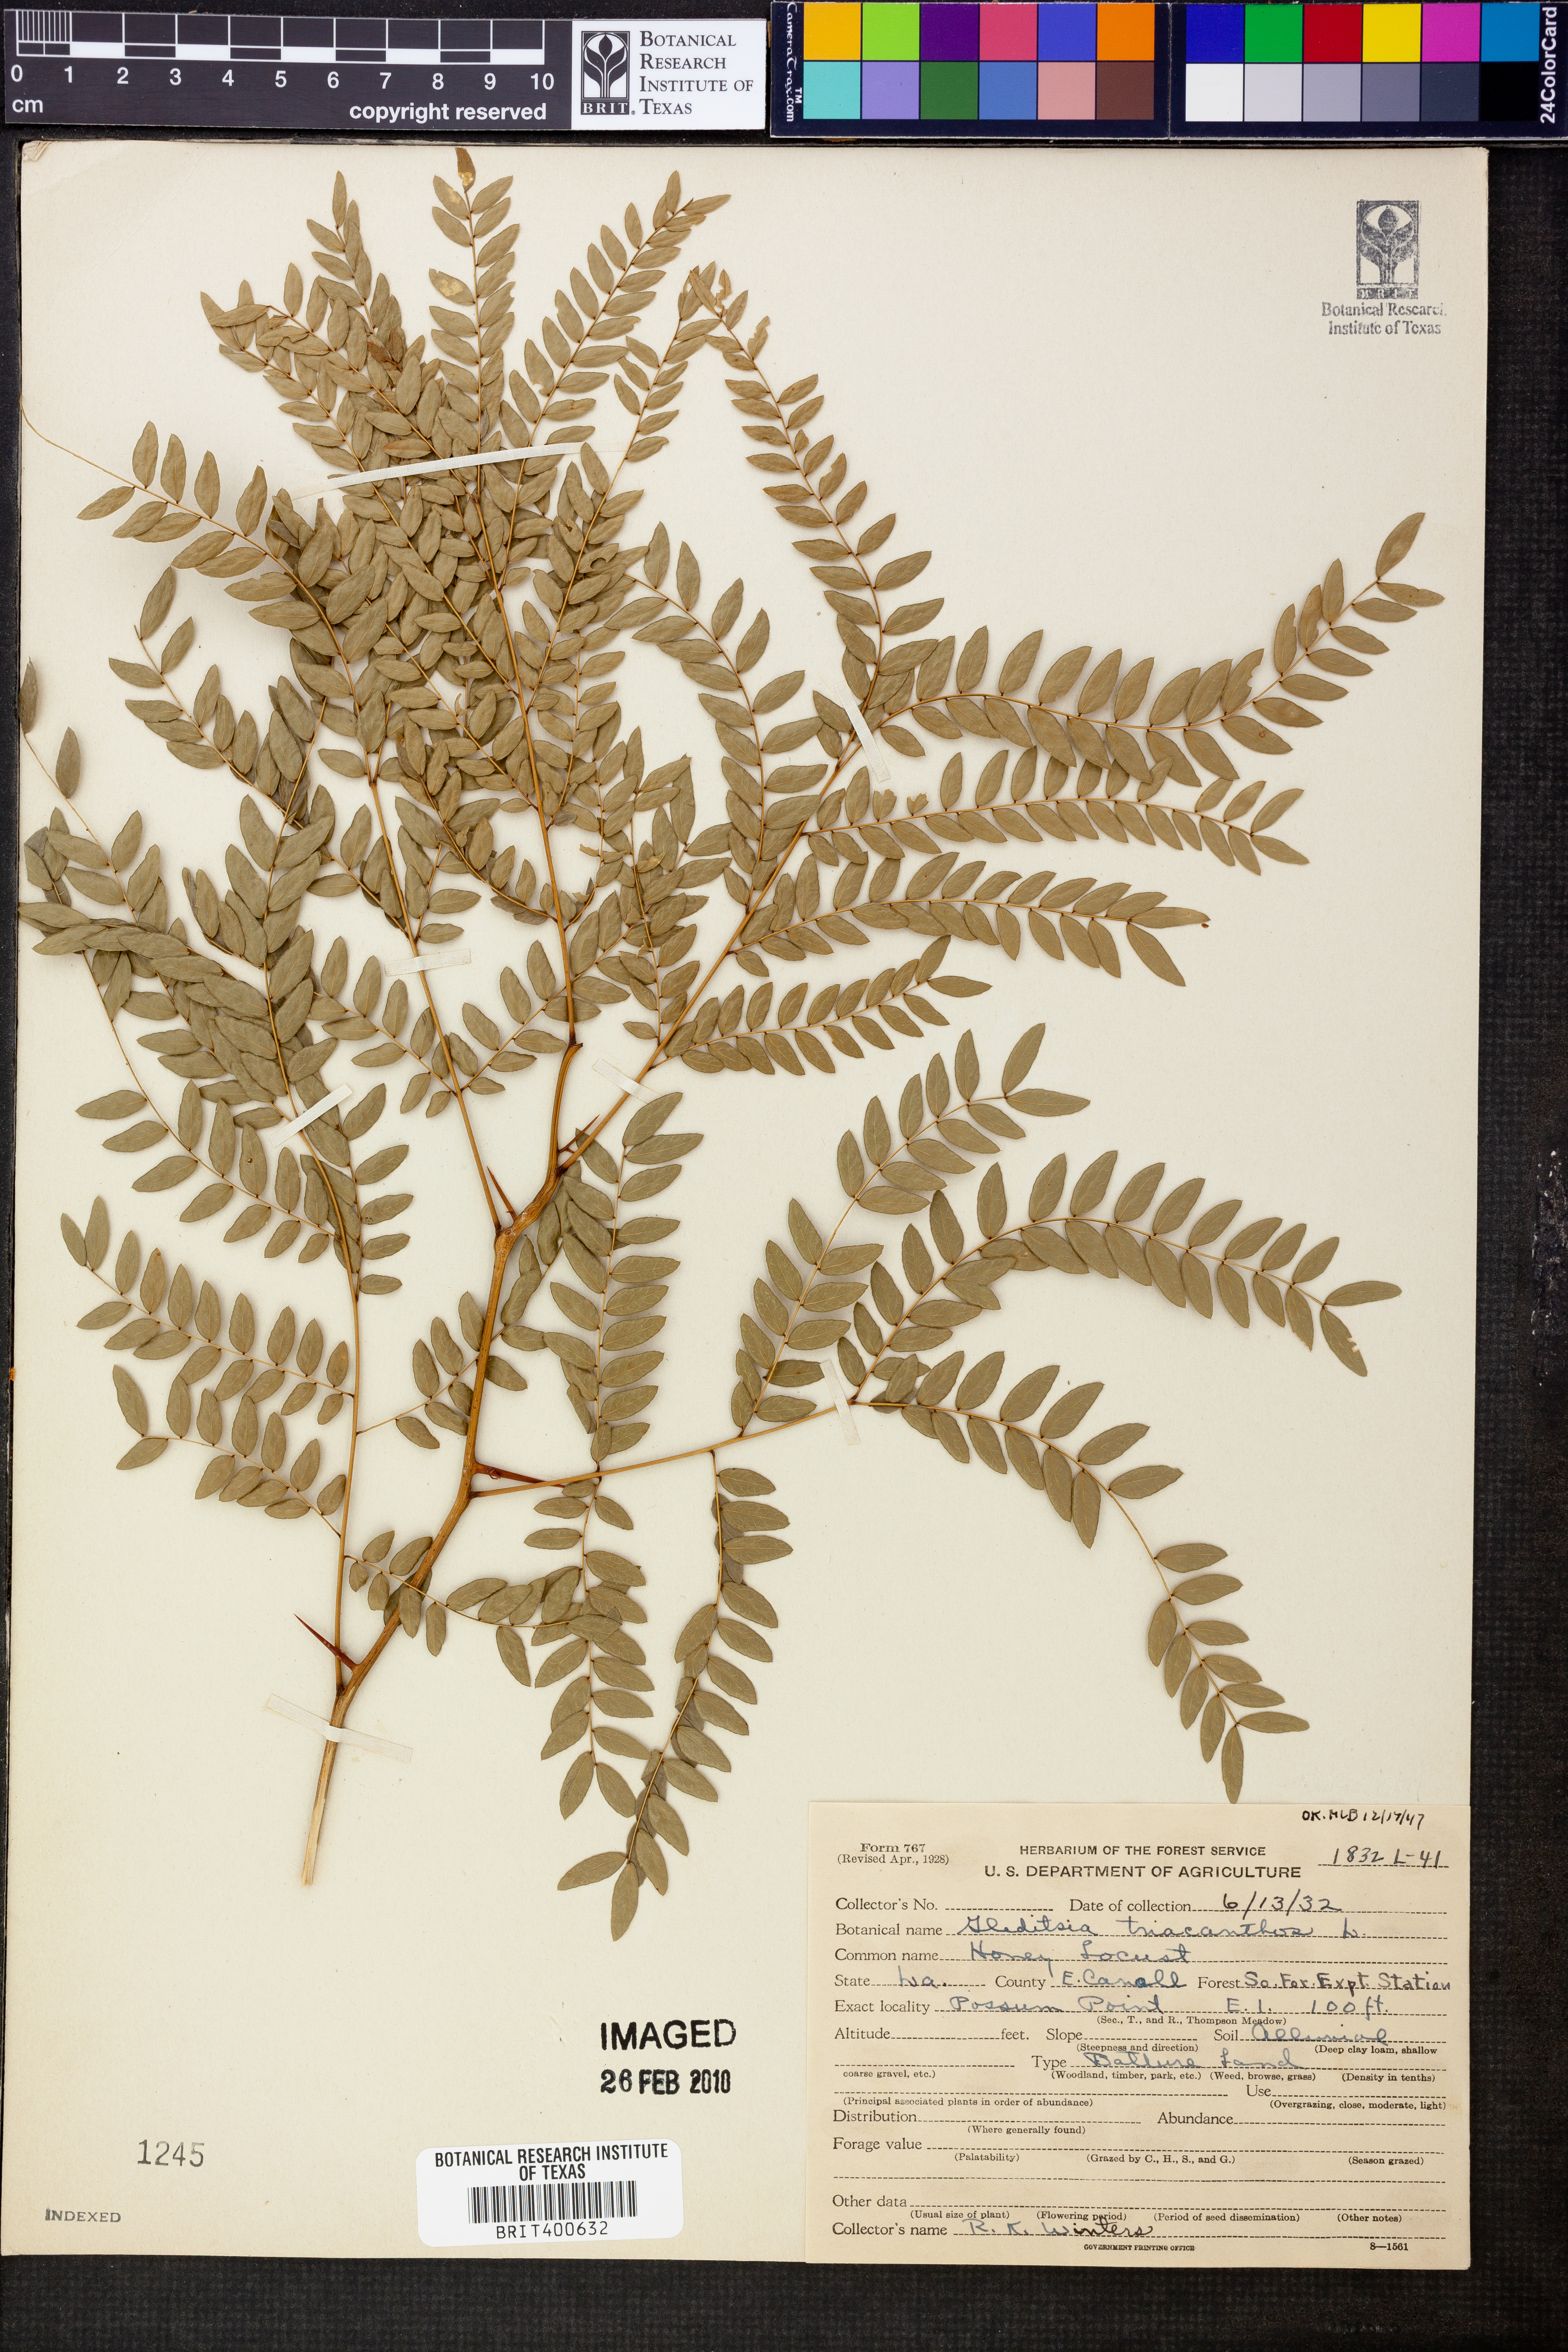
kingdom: Plantae
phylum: Tracheophyta
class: Magnoliopsida
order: Fabales
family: Fabaceae
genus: Gleditsia
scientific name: Gleditsia triacanthos
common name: Common honeylocust
